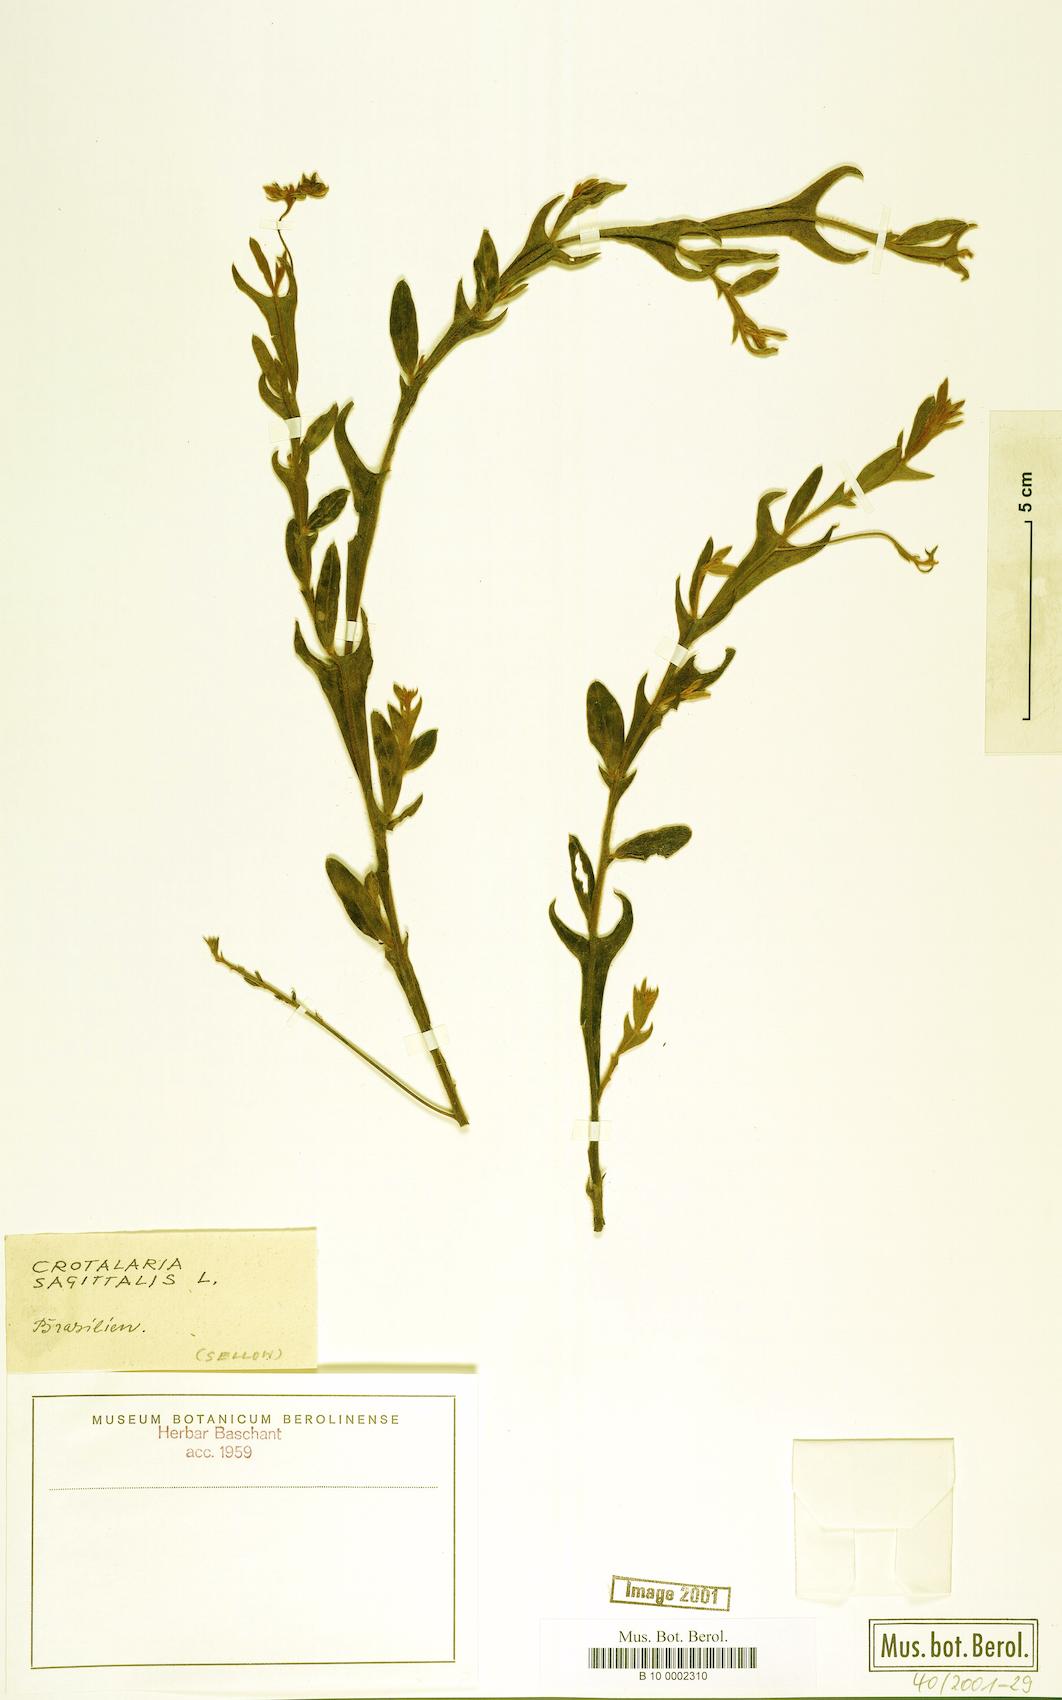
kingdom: Plantae
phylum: Tracheophyta
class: Magnoliopsida
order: Fabales
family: Fabaceae
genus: Crotalaria
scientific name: Crotalaria sagittalis
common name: Arrowhead rattlebox
